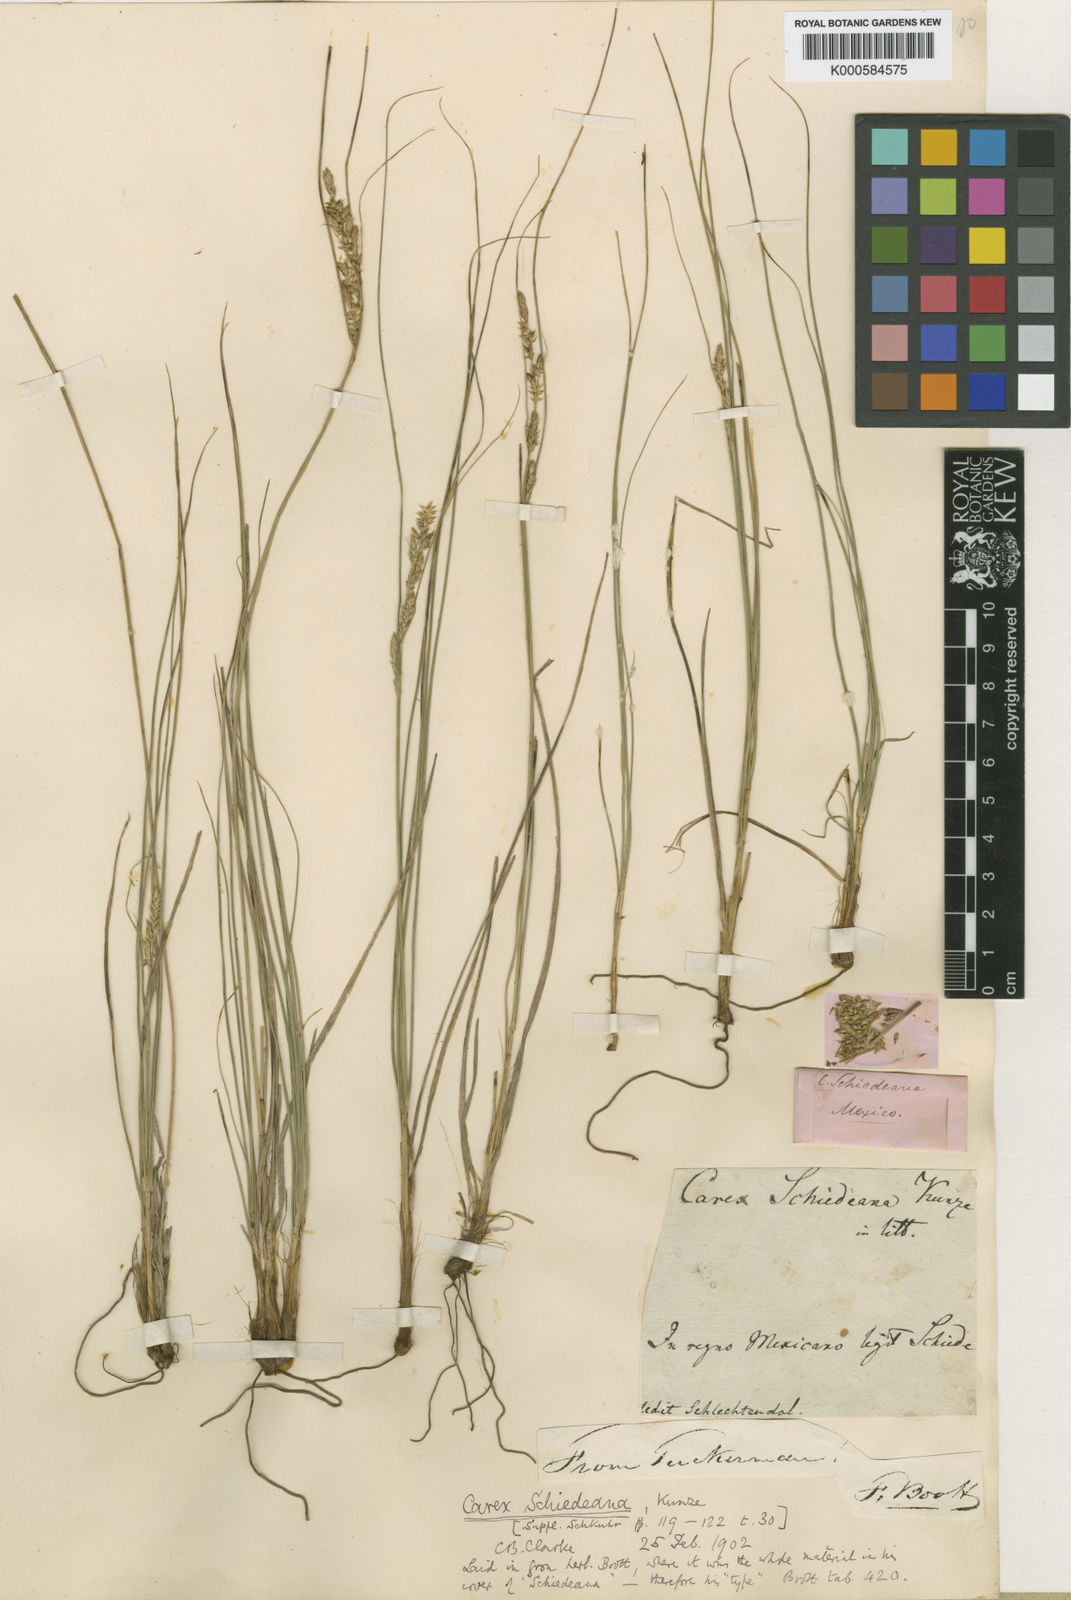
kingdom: Plantae
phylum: Tracheophyta
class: Liliopsida
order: Poales
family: Cyperaceae
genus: Carex
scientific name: Carex schiedeana
